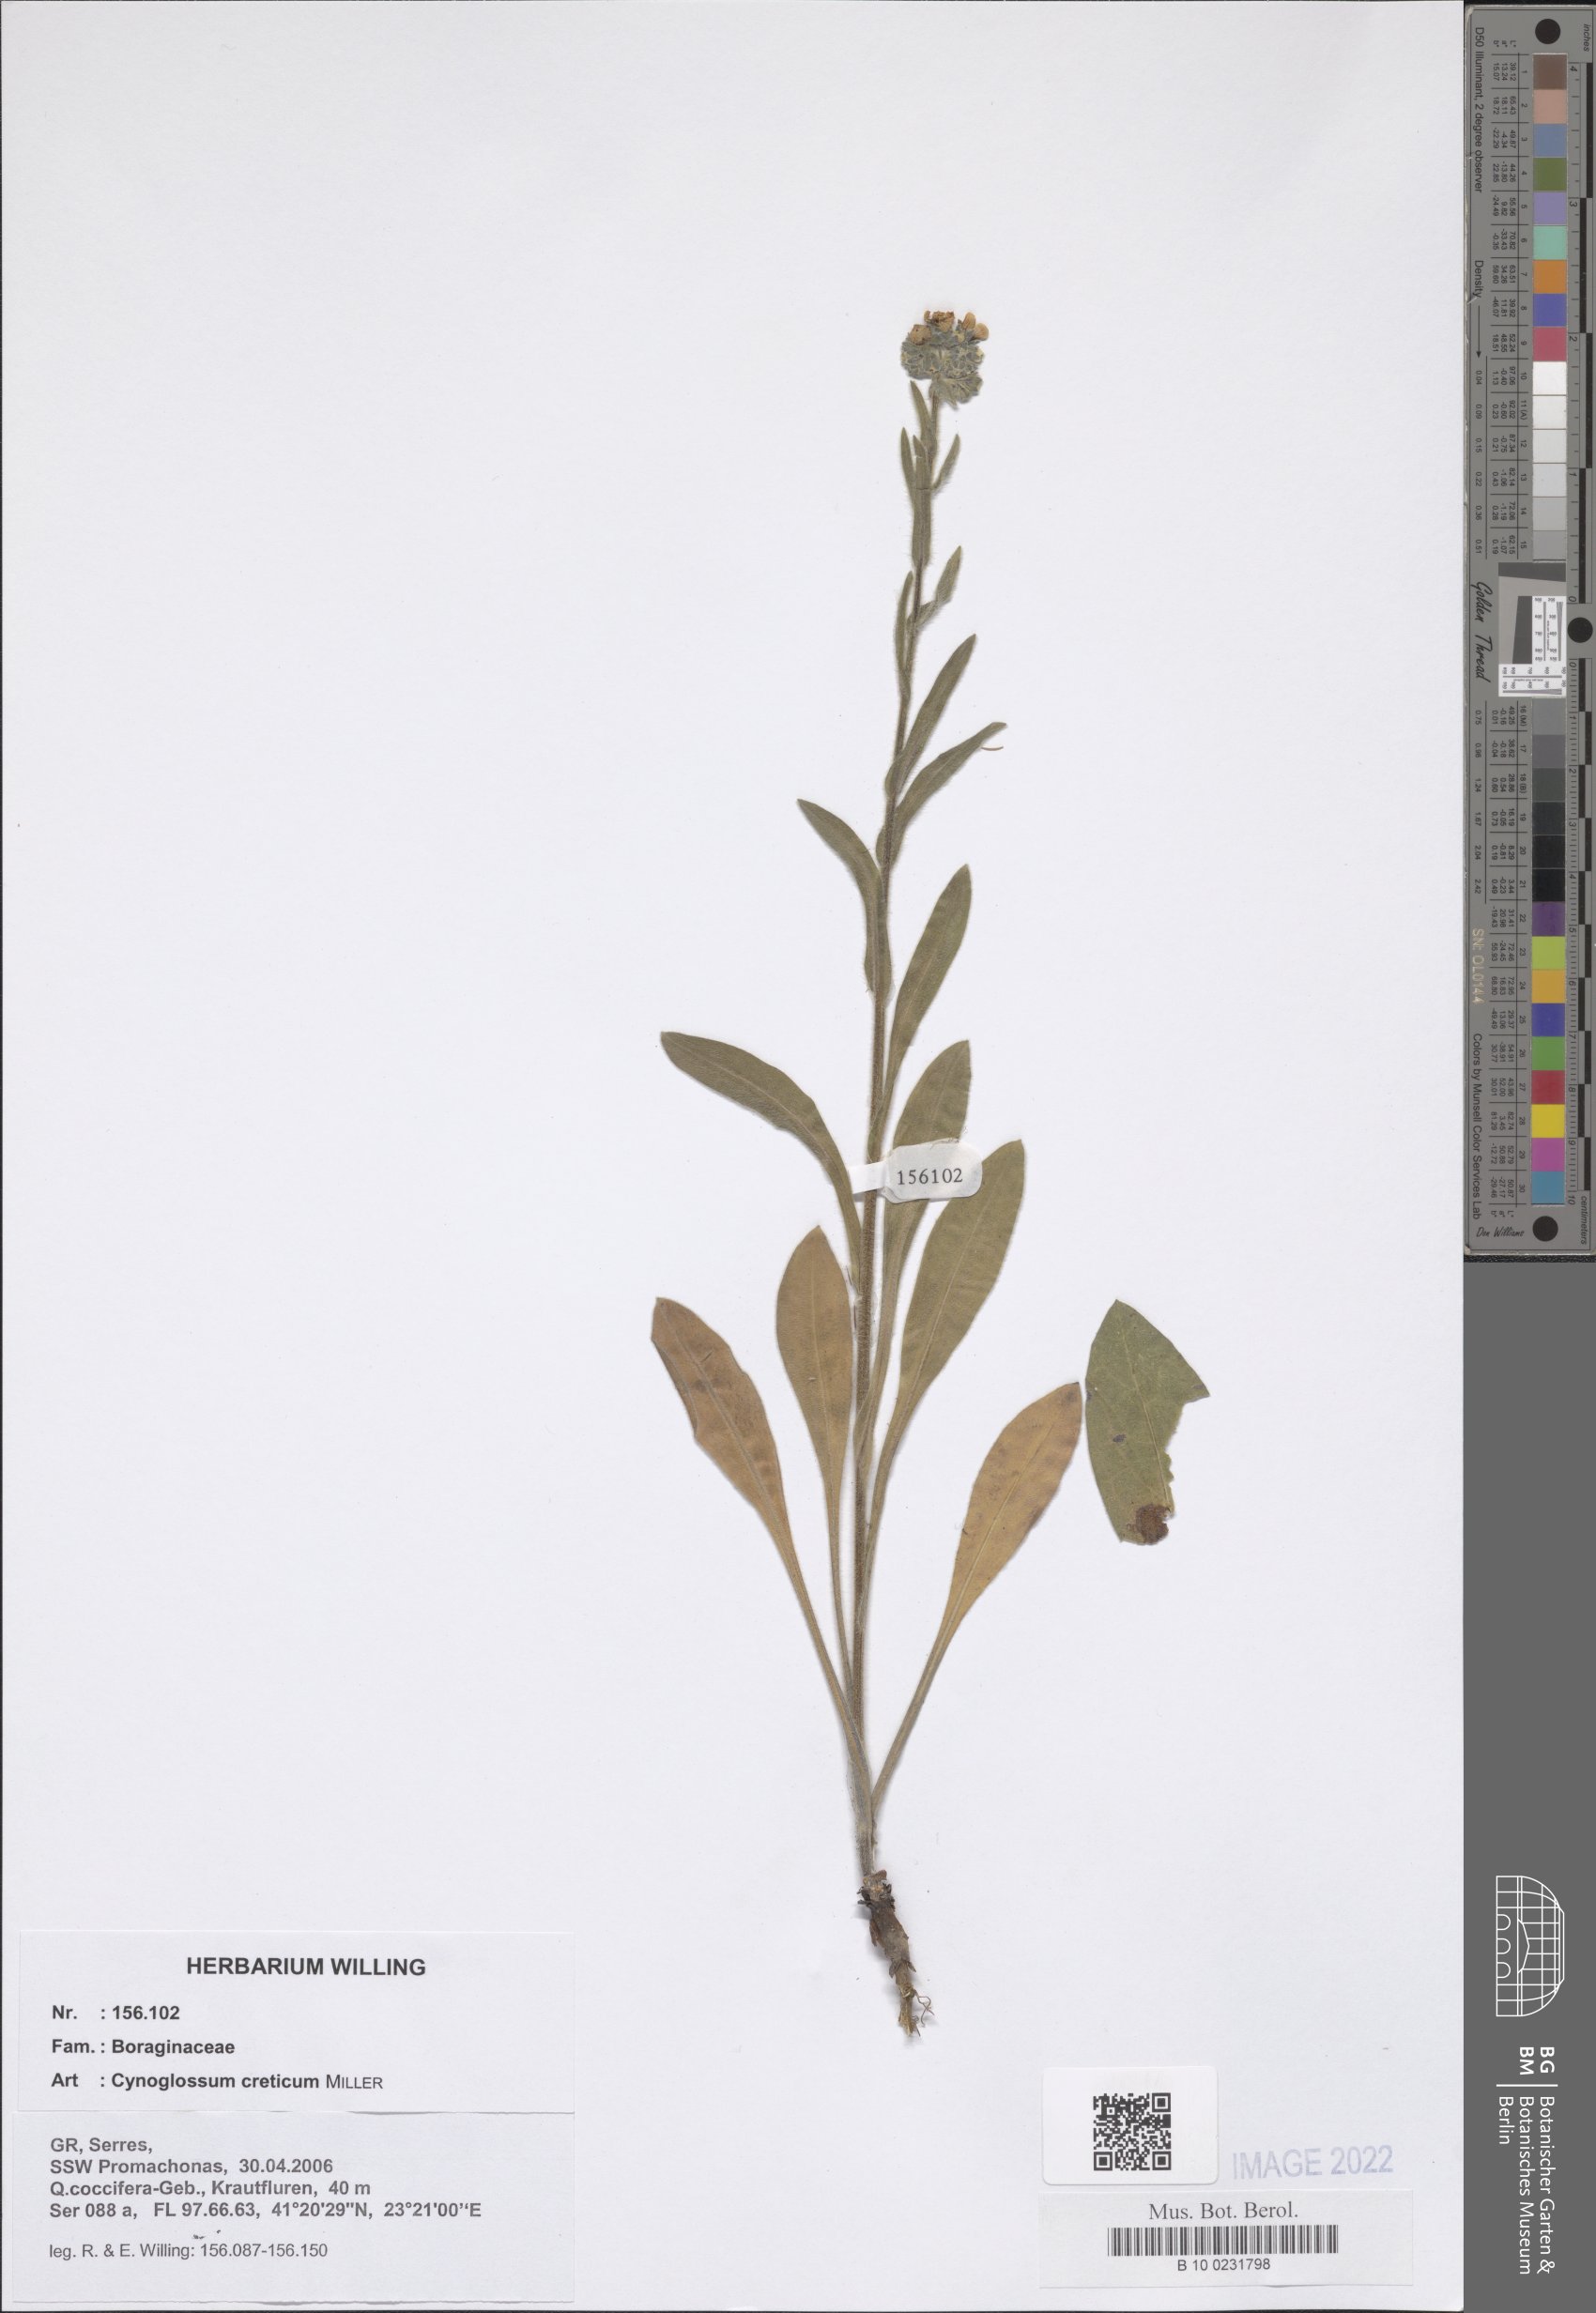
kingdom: Plantae
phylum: Tracheophyta
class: Magnoliopsida
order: Boraginales
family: Boraginaceae
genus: Cynoglossum
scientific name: Cynoglossum creticum
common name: Blue hound's tongue
